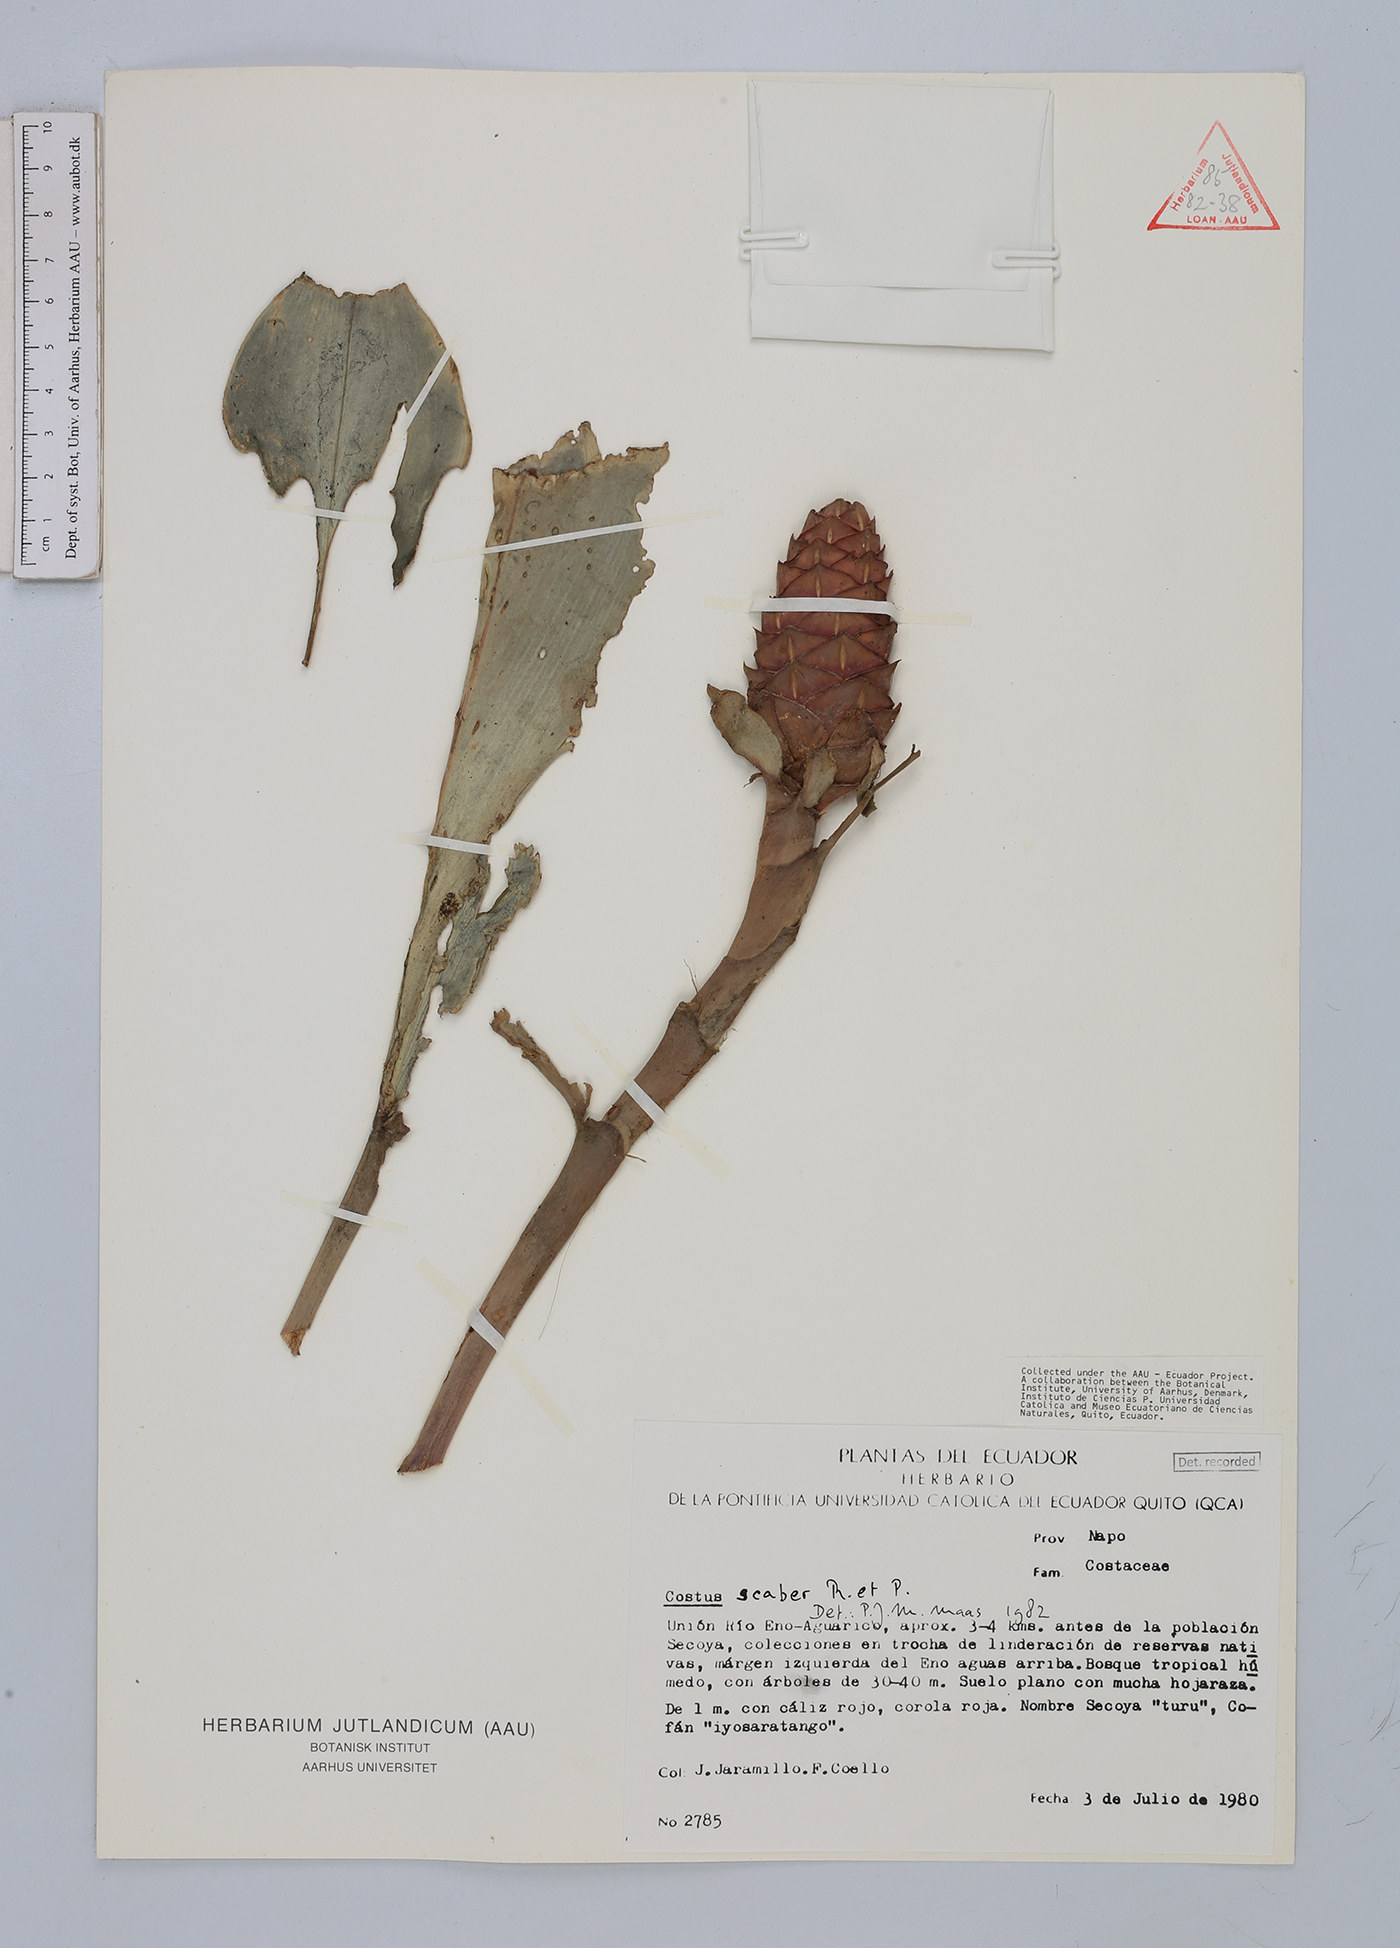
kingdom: Plantae
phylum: Tracheophyta
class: Liliopsida
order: Zingiberales
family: Costaceae
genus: Costus
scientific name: Costus scaber
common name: Spiral head ginger
